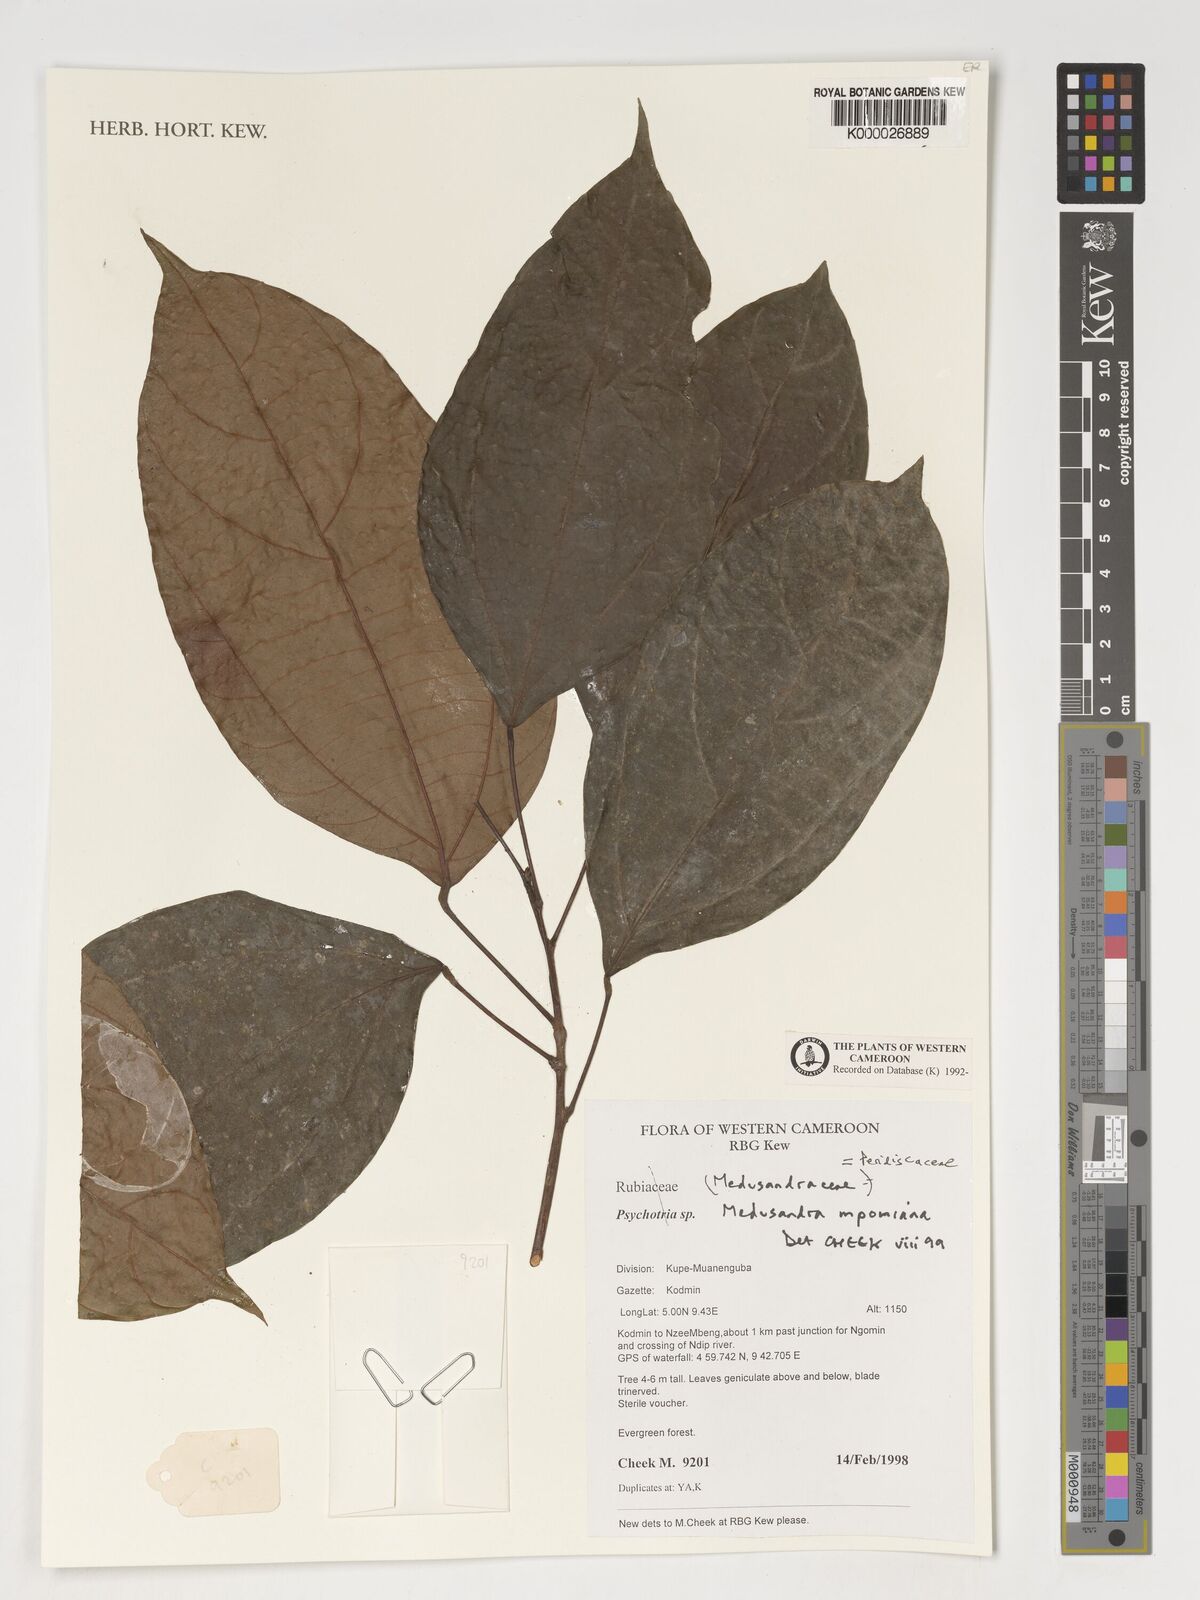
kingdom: Plantae
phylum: Tracheophyta
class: Magnoliopsida
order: Saxifragales
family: Peridiscaceae
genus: Medusandra
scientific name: Medusandra mpomiana
